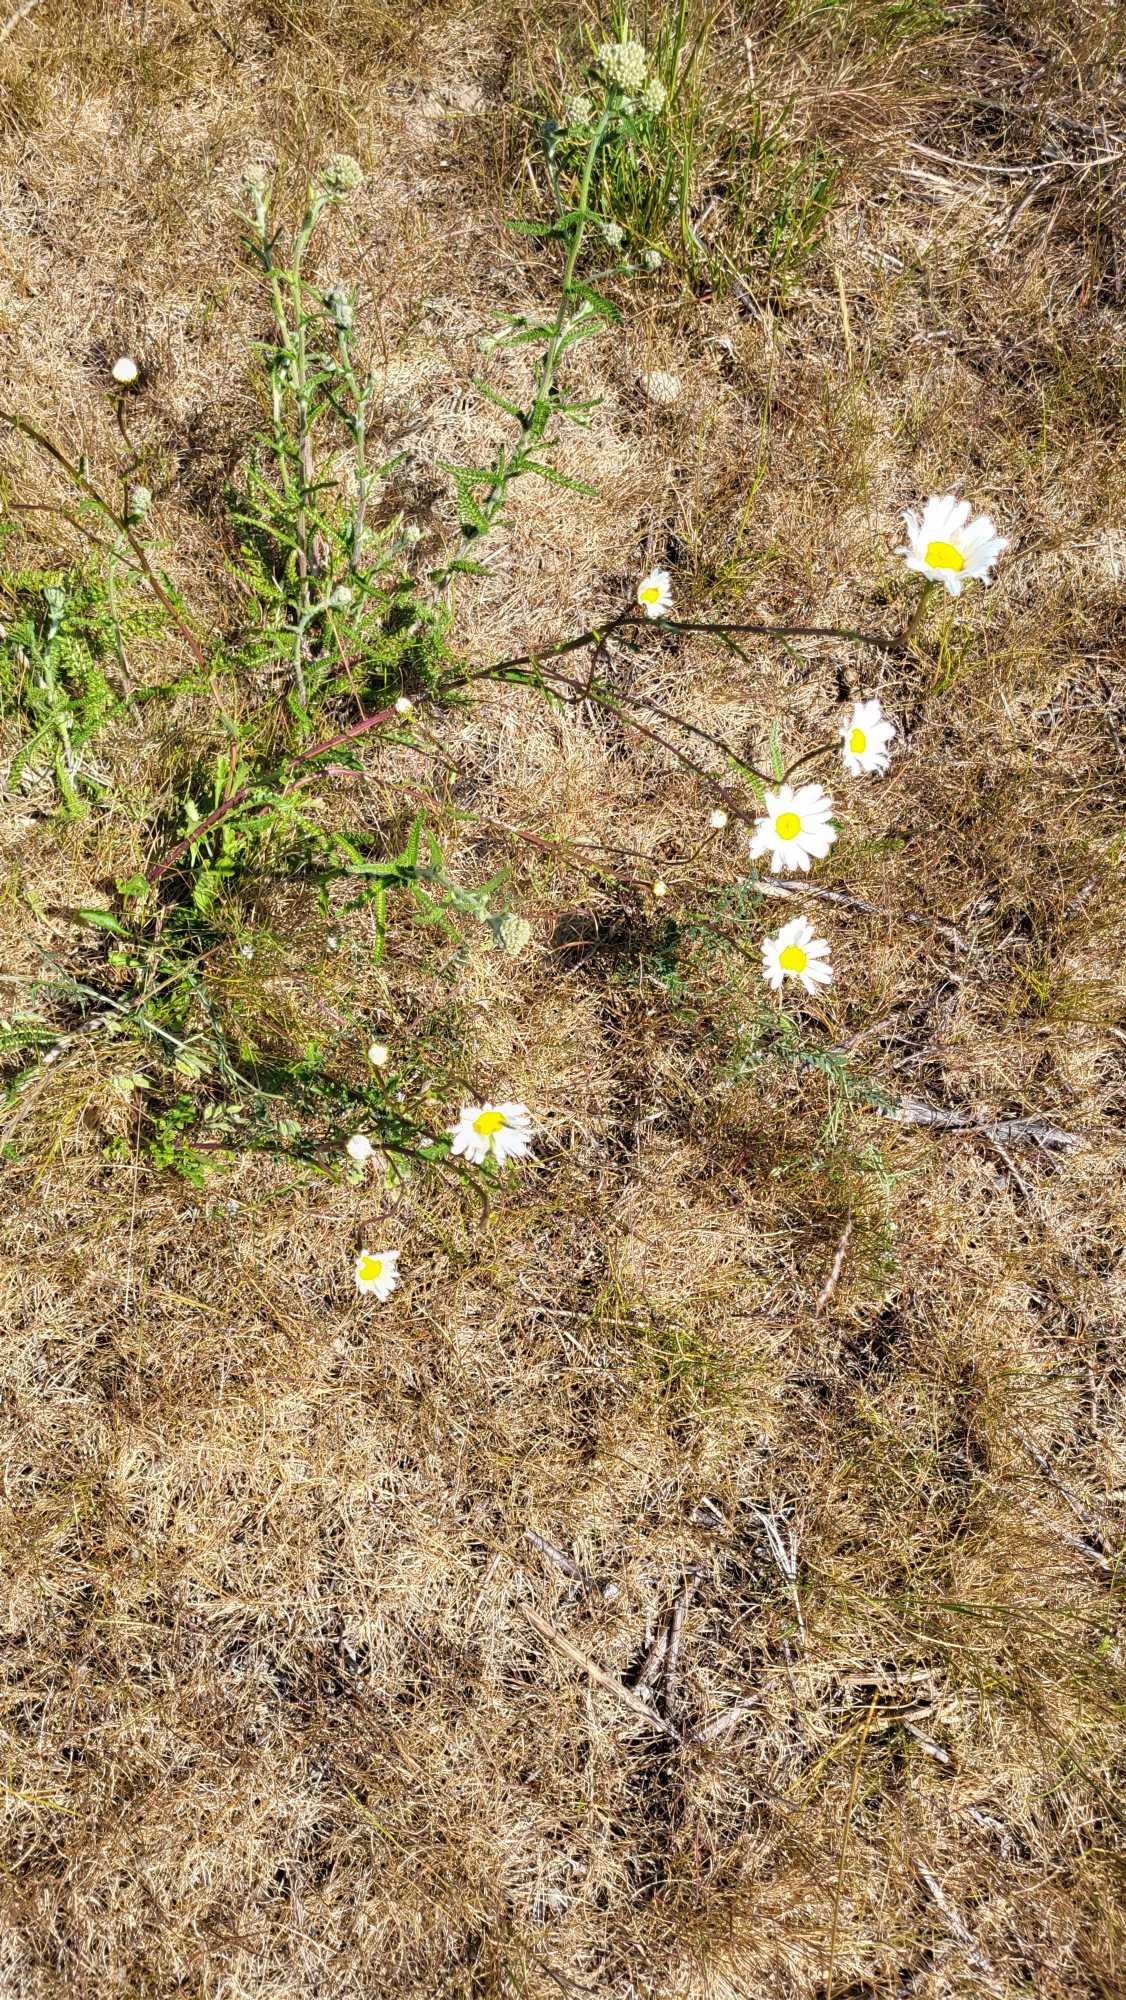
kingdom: Plantae
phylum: Tracheophyta
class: Magnoliopsida
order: Asterales
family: Asteraceae
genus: Leucanthemum
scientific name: Leucanthemum vulgare
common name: Hvid okseøje
